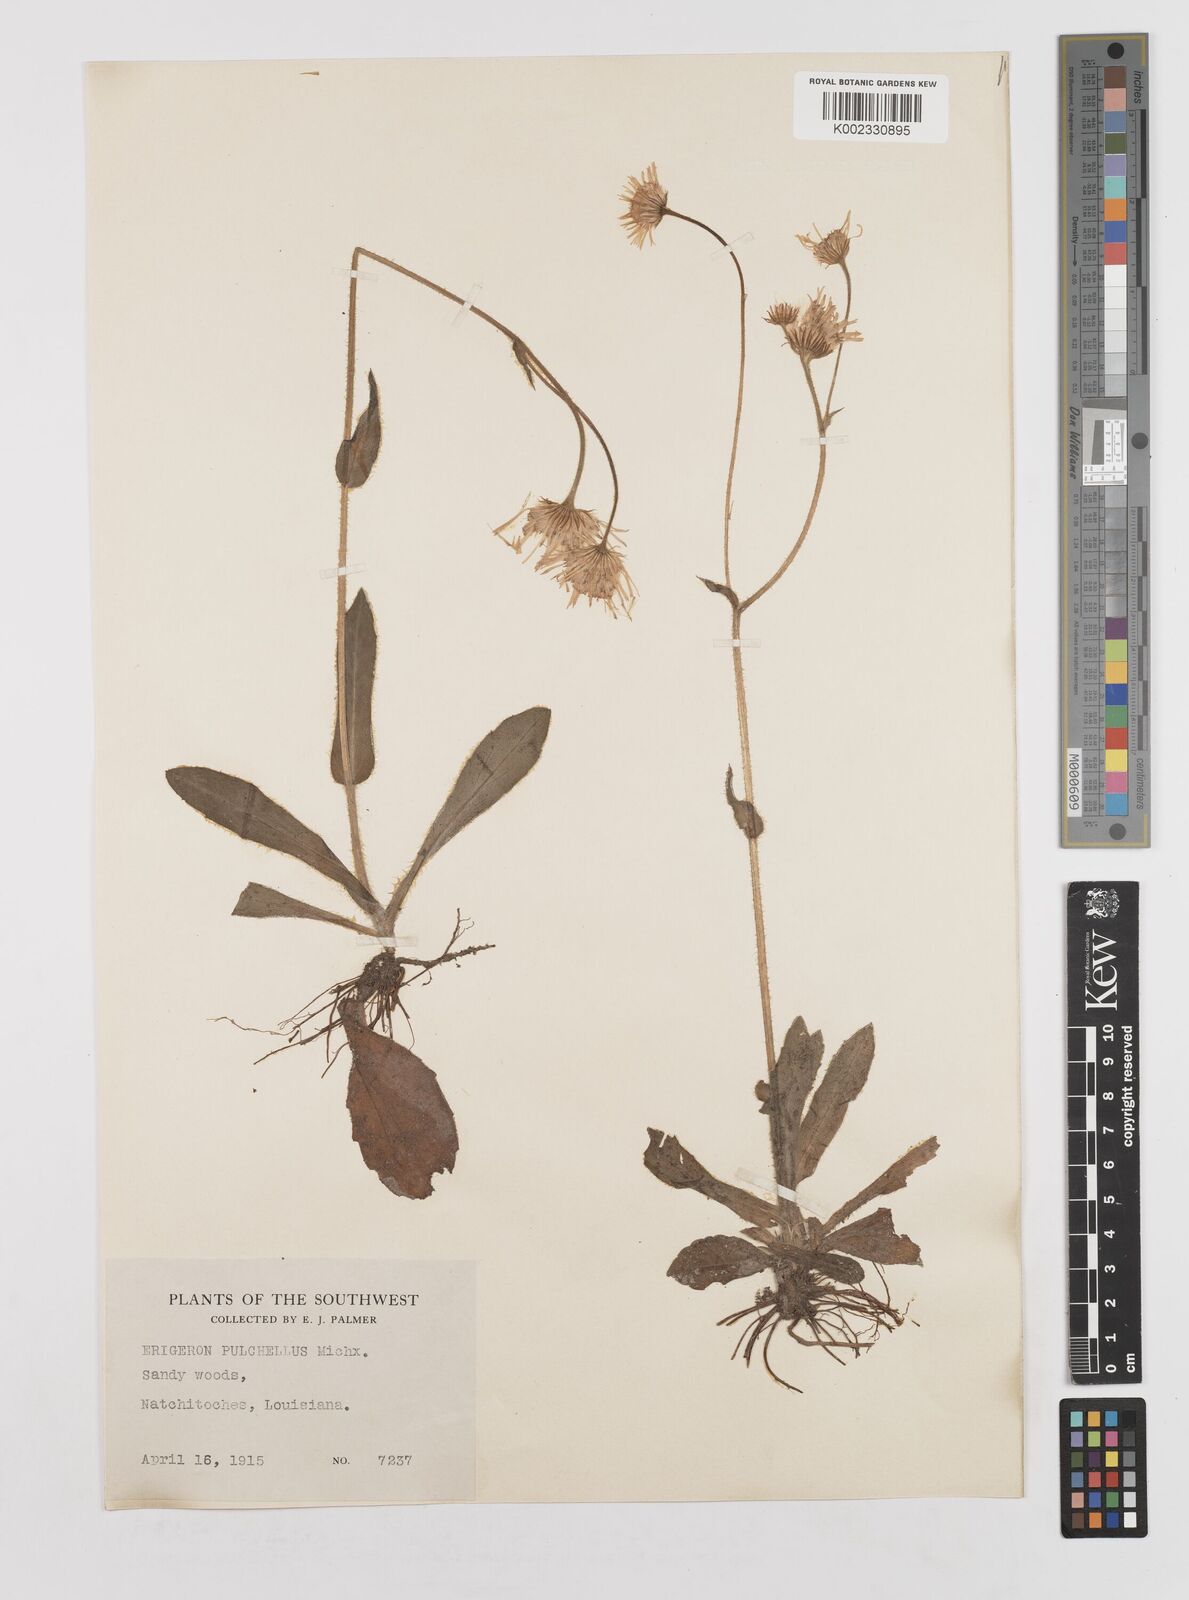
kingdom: Plantae
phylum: Tracheophyta
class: Magnoliopsida
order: Asterales
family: Asteraceae
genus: Erigeron
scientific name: Erigeron pulchellus
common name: Hairy fleabane
